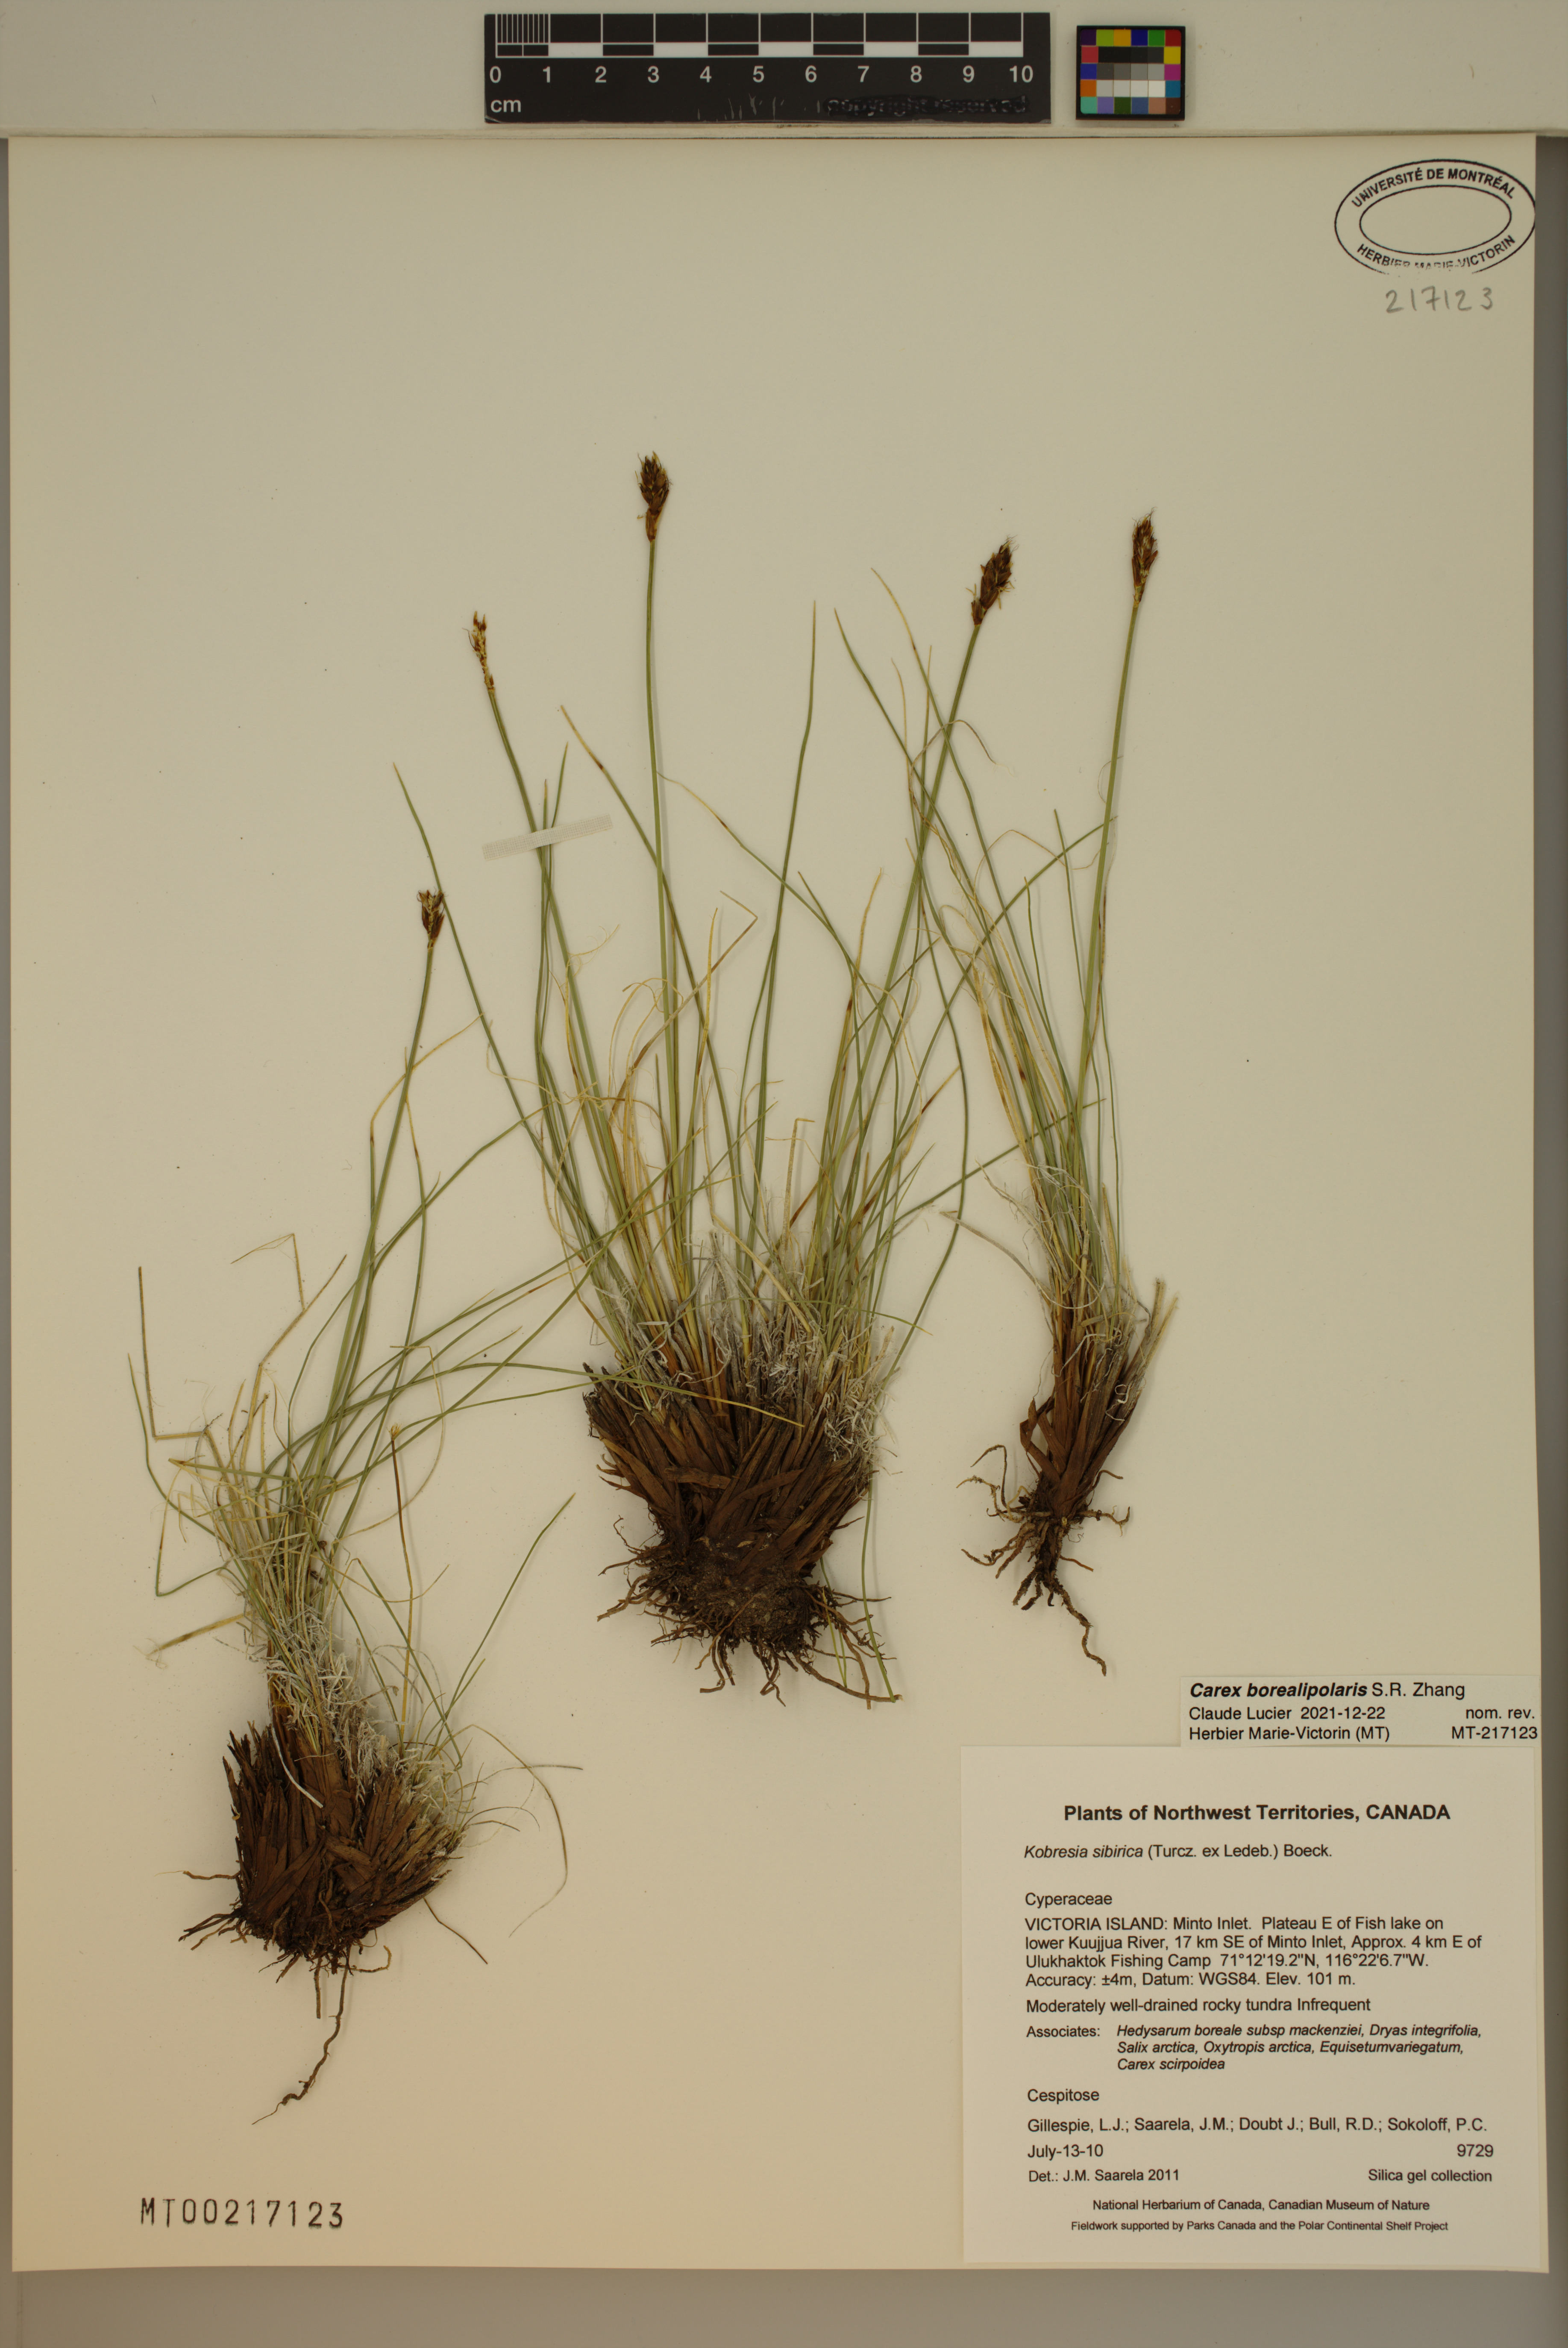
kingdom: Plantae
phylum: Tracheophyta
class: Liliopsida
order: Poales
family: Cyperaceae
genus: Carex
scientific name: Carex borealipolaris
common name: Siberian bog sedge
